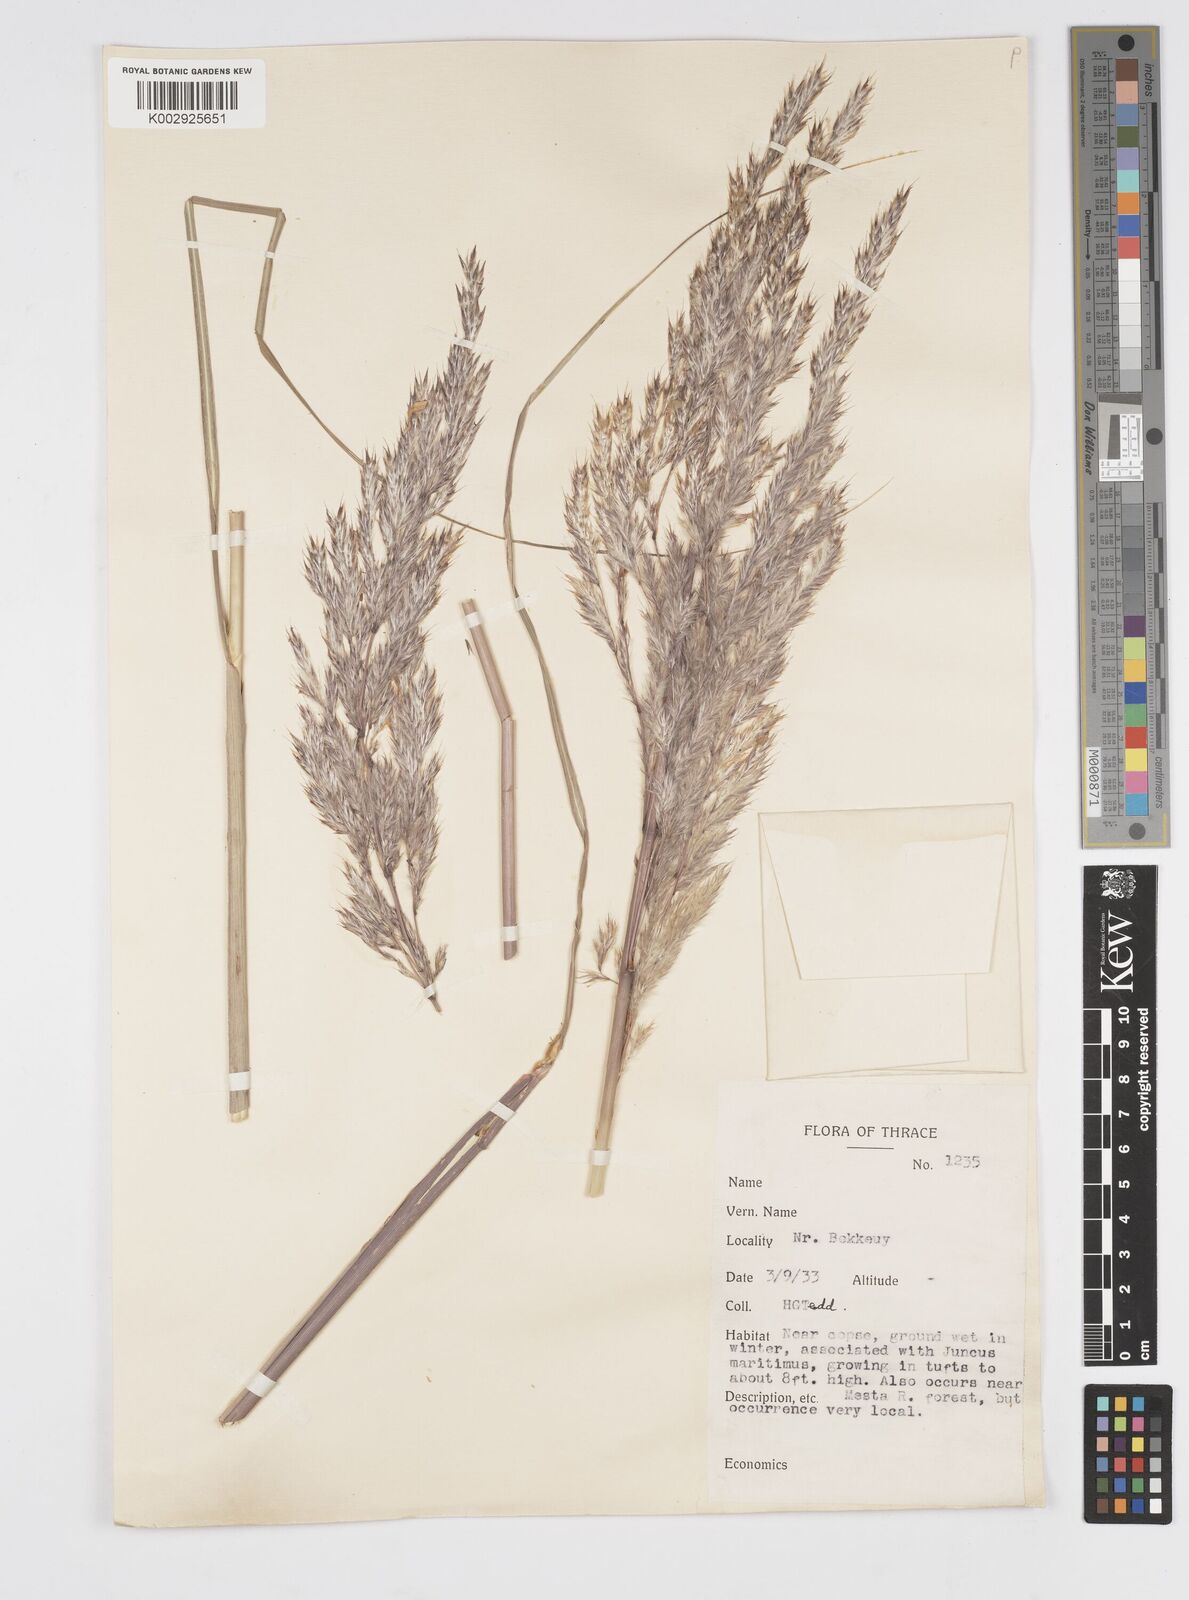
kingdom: Plantae
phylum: Tracheophyta
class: Liliopsida
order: Poales
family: Poaceae
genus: Tripidium
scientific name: Tripidium ravennae
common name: Ravenna grass
